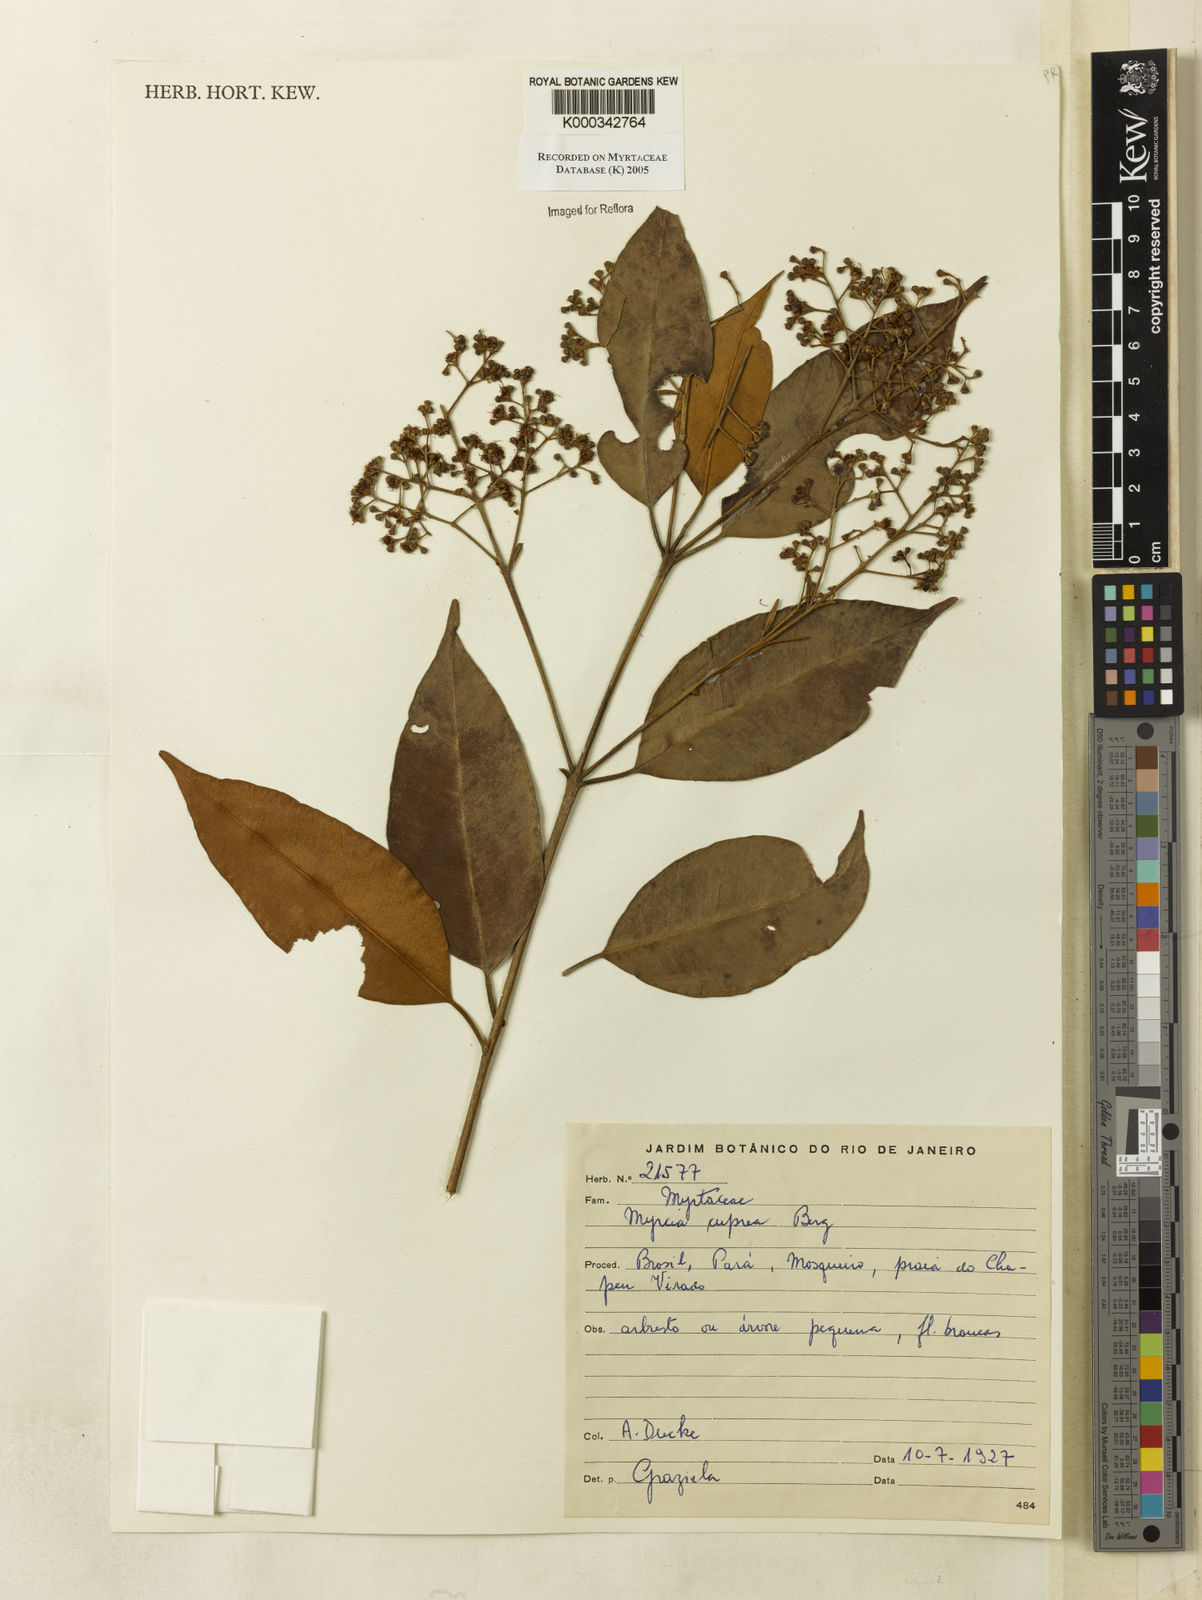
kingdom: Plantae
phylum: Tracheophyta
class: Magnoliopsida
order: Myrtales
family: Myrtaceae
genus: Myrcia
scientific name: Myrcia cuprea
